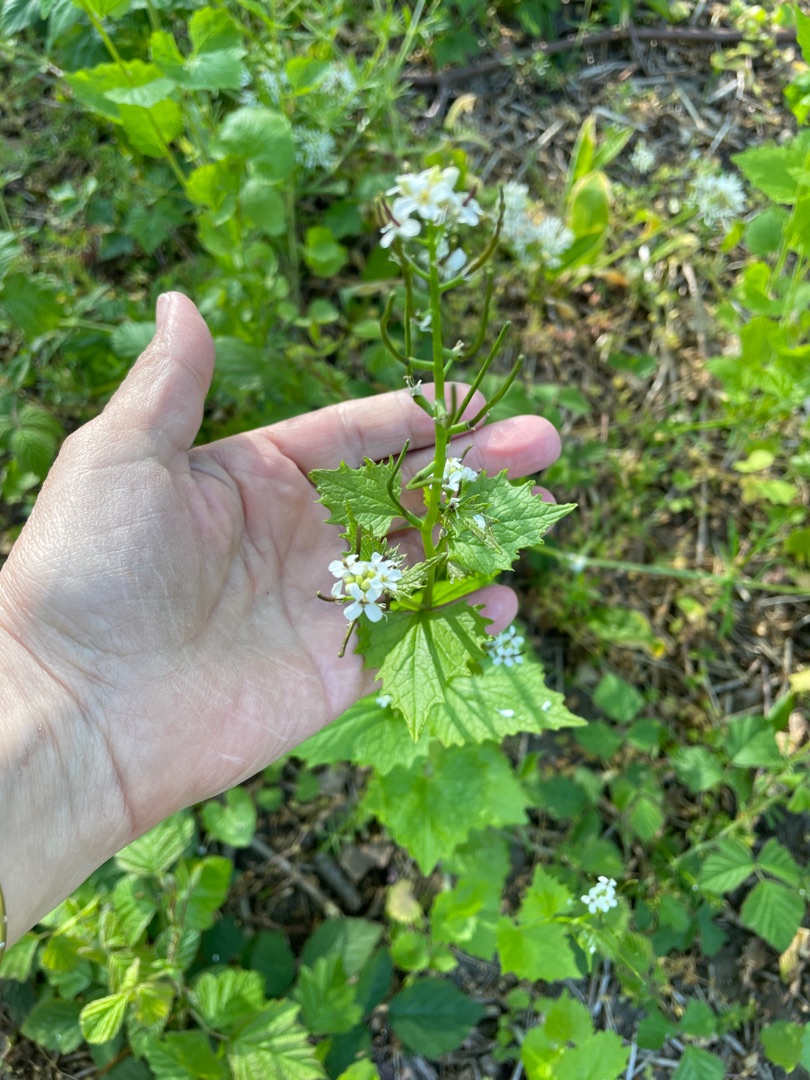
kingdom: Plantae
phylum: Tracheophyta
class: Magnoliopsida
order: Brassicales
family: Brassicaceae
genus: Alliaria
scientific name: Alliaria petiolata
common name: Løgkarse
